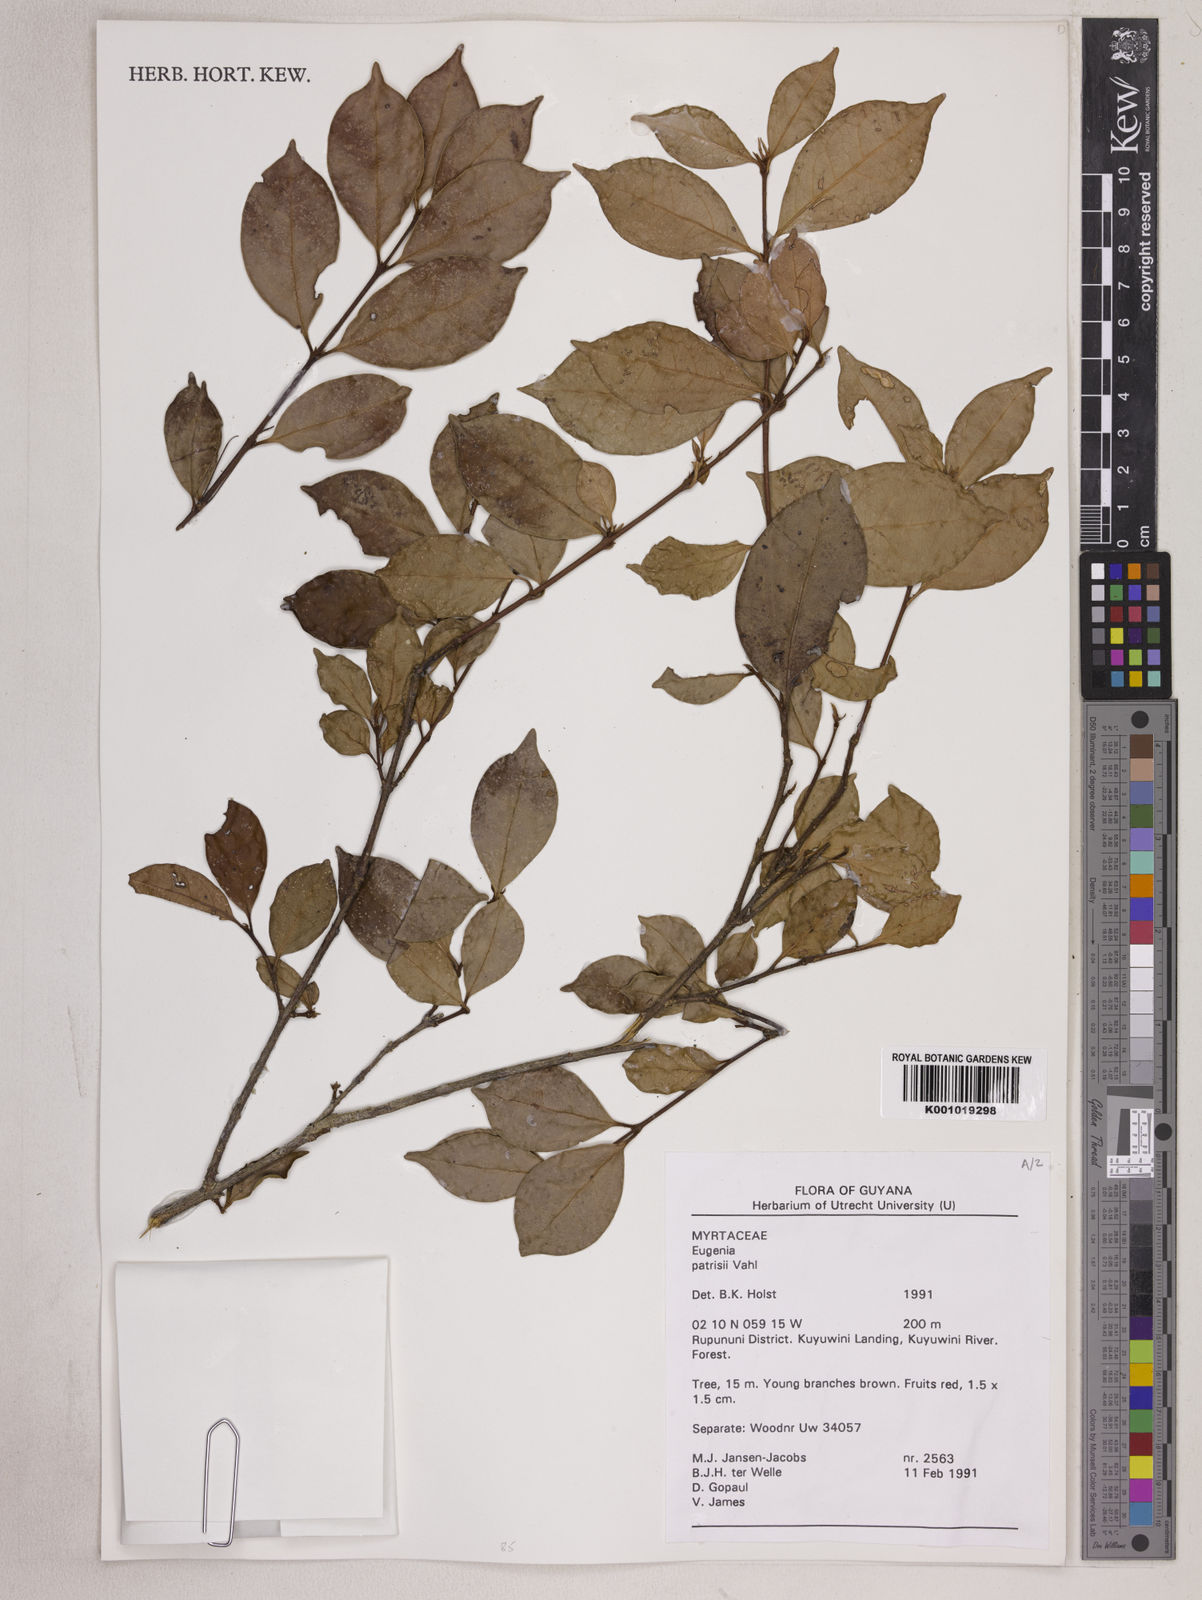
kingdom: Plantae
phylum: Tracheophyta
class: Magnoliopsida
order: Myrtales
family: Myrtaceae
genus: Eugenia
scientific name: Eugenia patrisii
